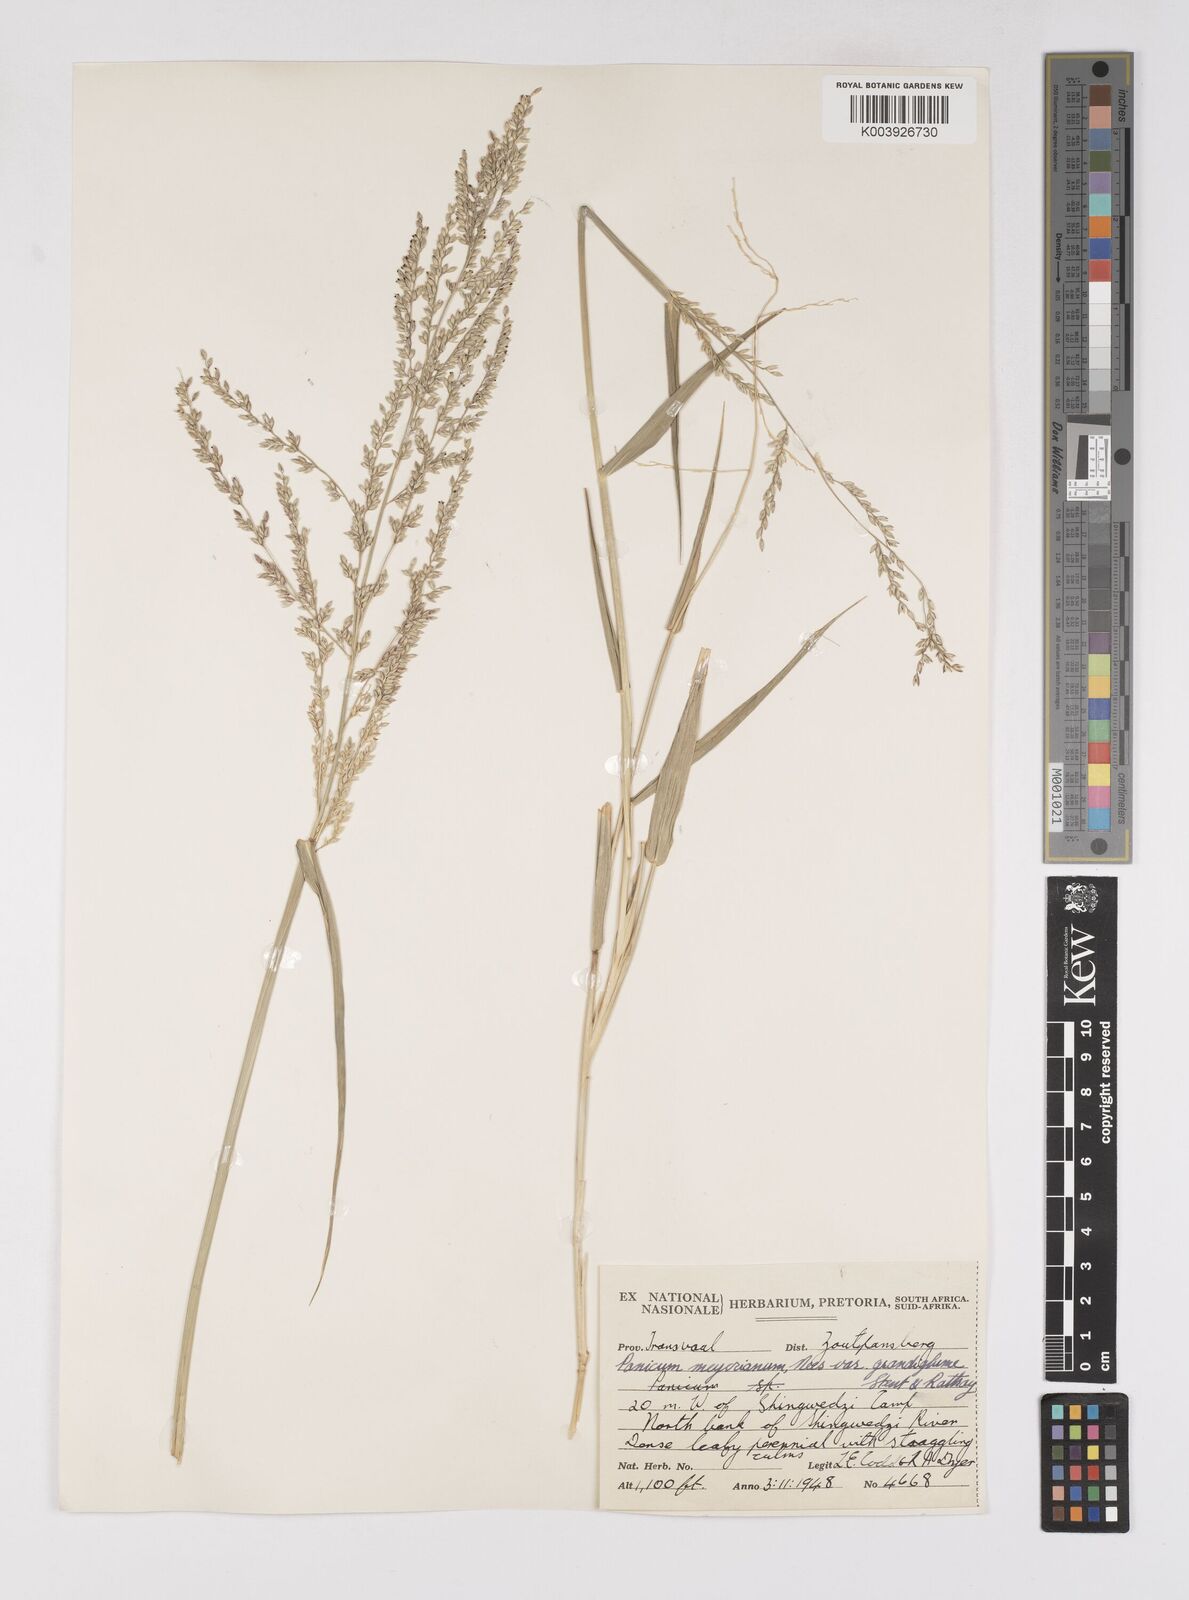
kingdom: Plantae
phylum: Tracheophyta
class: Liliopsida
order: Poales
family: Poaceae
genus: Eriochloa
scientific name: Eriochloa meyeriana
